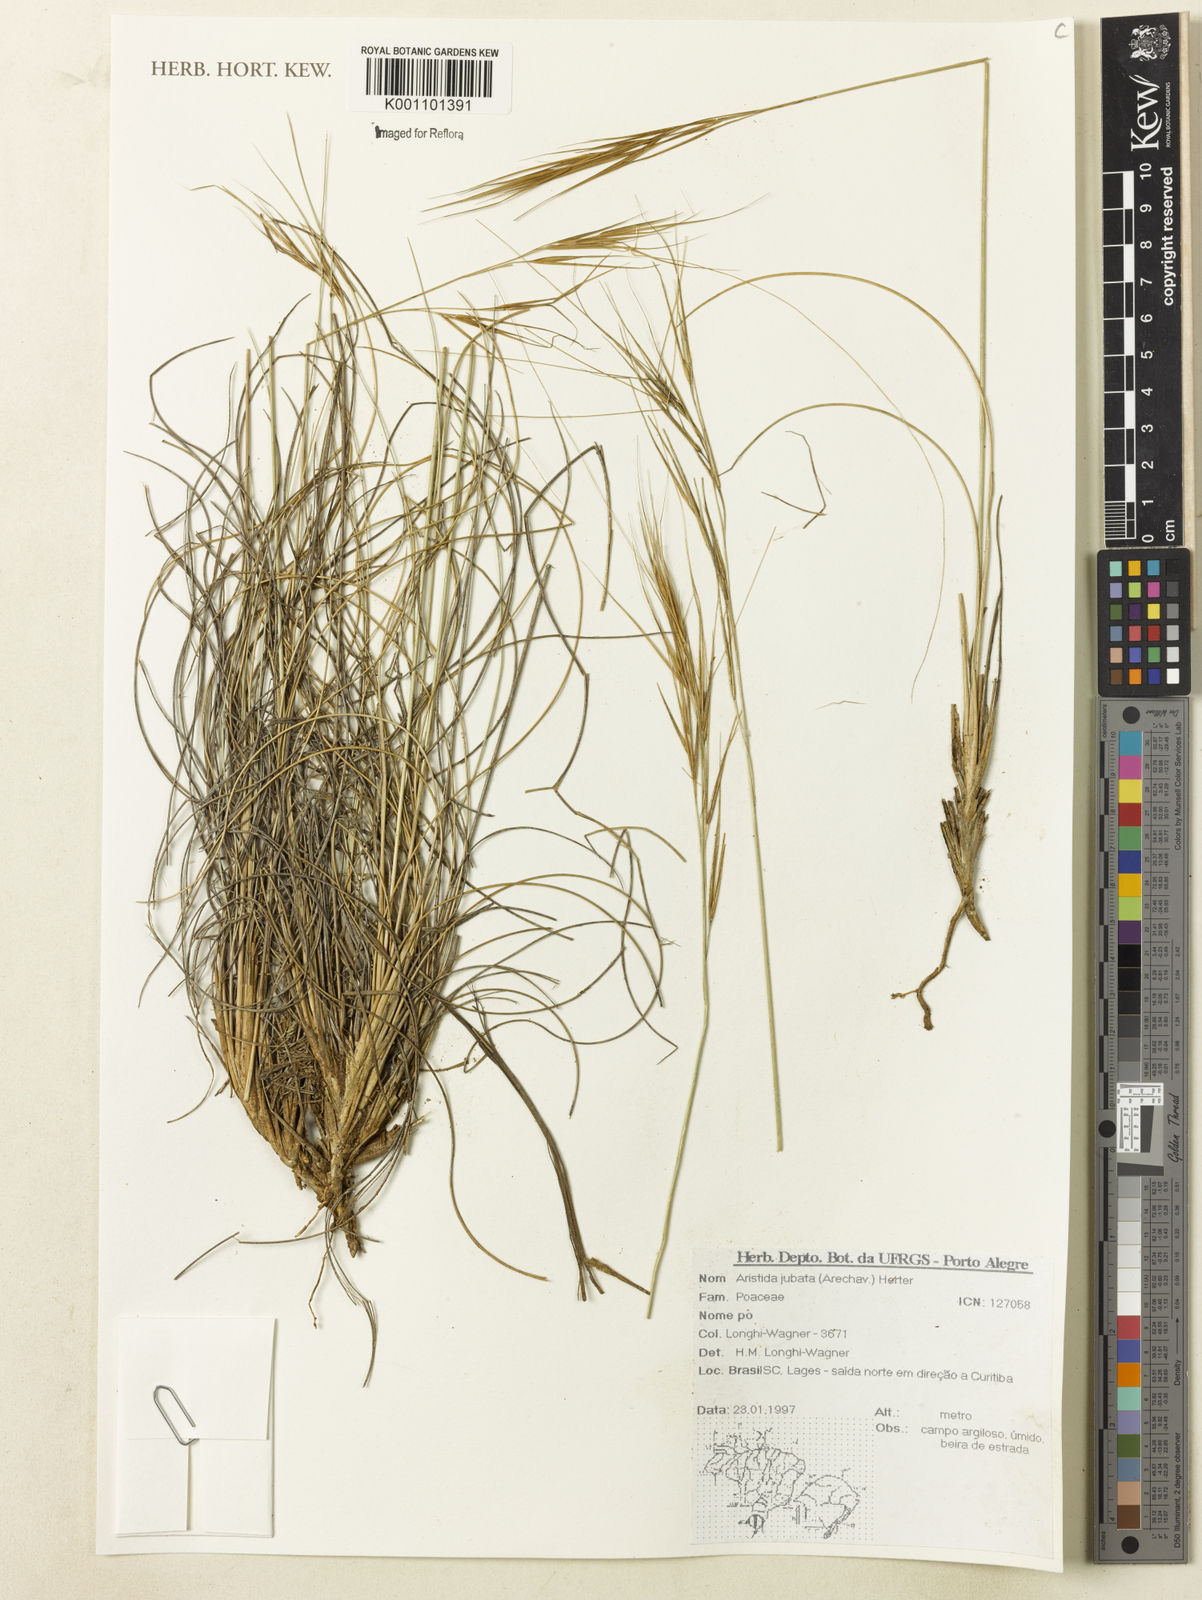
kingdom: Plantae
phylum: Tracheophyta
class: Liliopsida
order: Poales
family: Poaceae
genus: Aristida
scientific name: Aristida jubata
